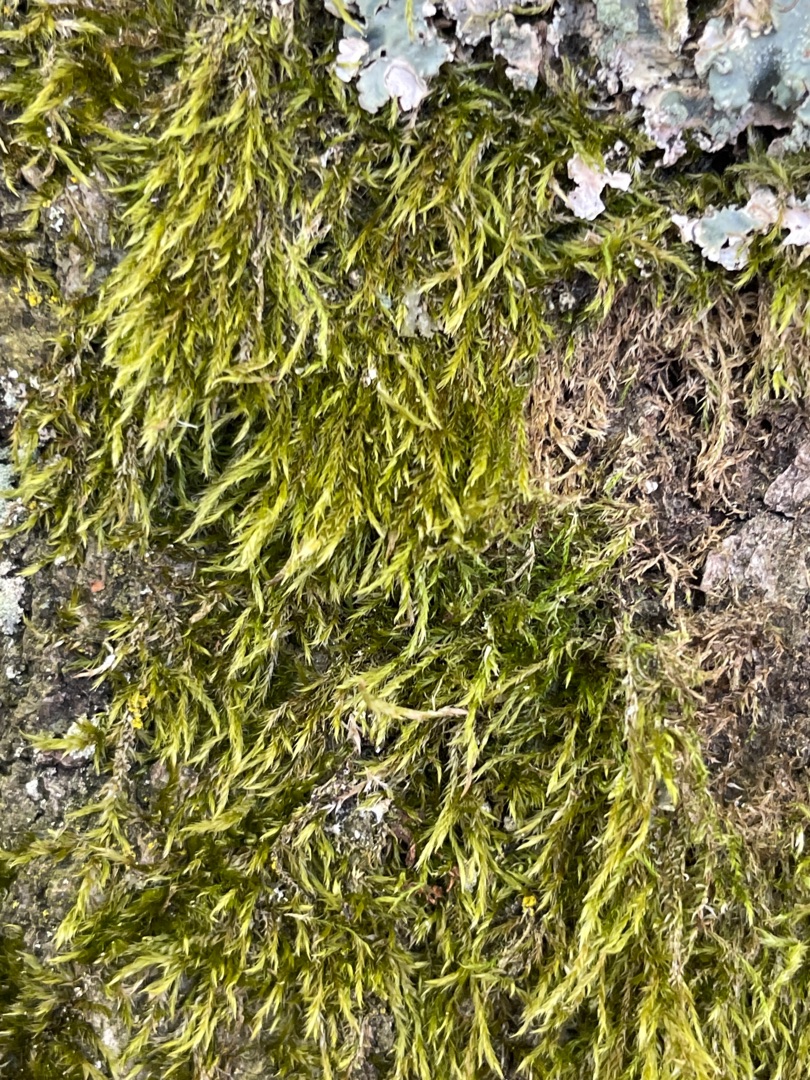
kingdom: Plantae
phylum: Bryophyta
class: Bryopsida
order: Hypnales
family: Hypnaceae
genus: Hypnum
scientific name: Hypnum
